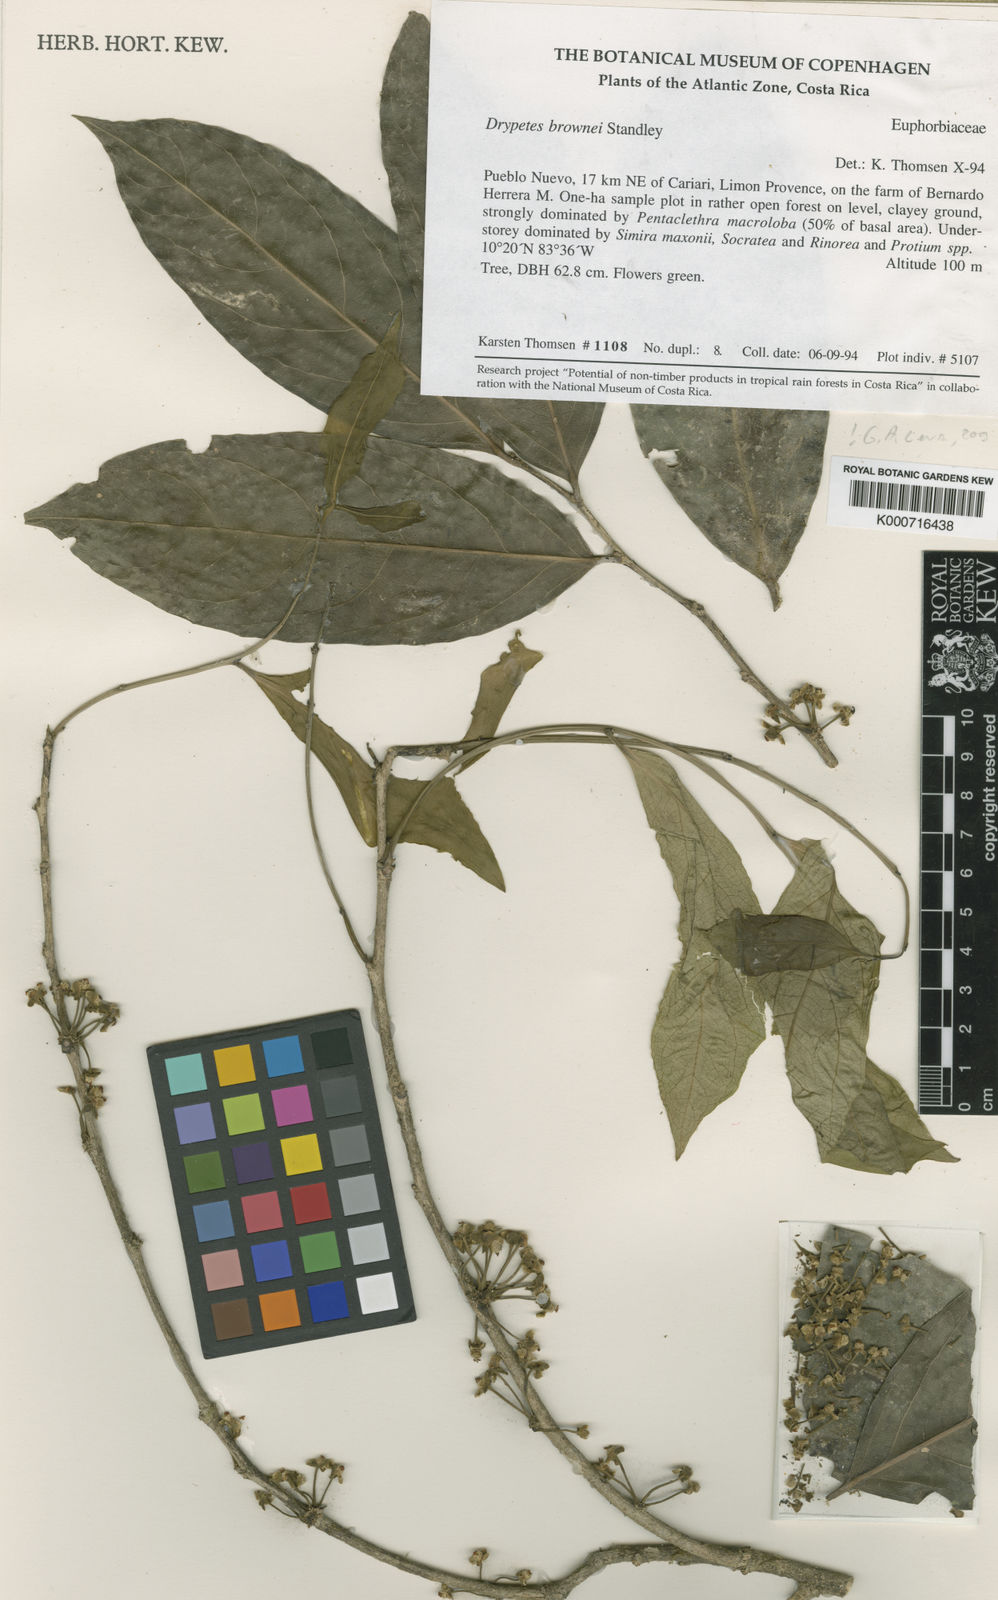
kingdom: Plantae
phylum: Tracheophyta
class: Magnoliopsida
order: Malpighiales
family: Putranjivaceae
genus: Drypetes
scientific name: Drypetes brownii
